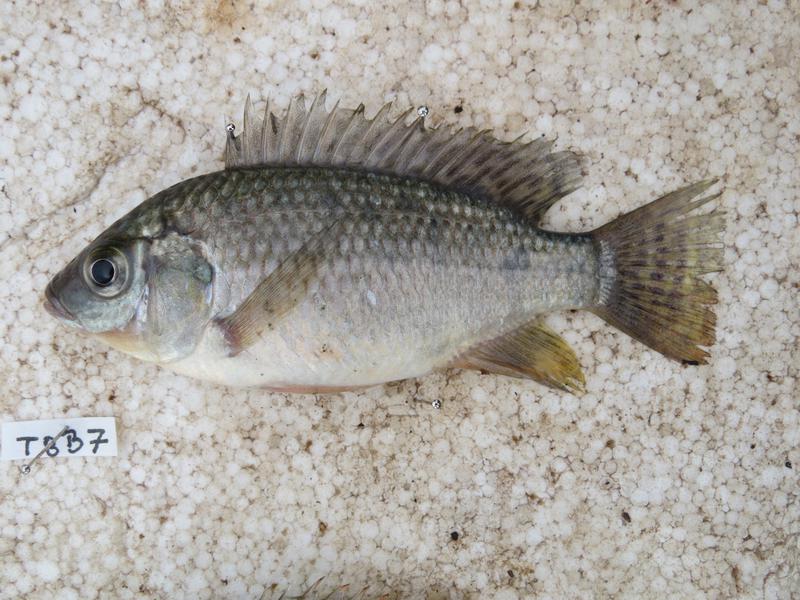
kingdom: Animalia
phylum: Chordata
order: Perciformes
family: Cichlidae
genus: Oreochromis
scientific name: Oreochromis leucostictus
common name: Blue spotted tilapia
